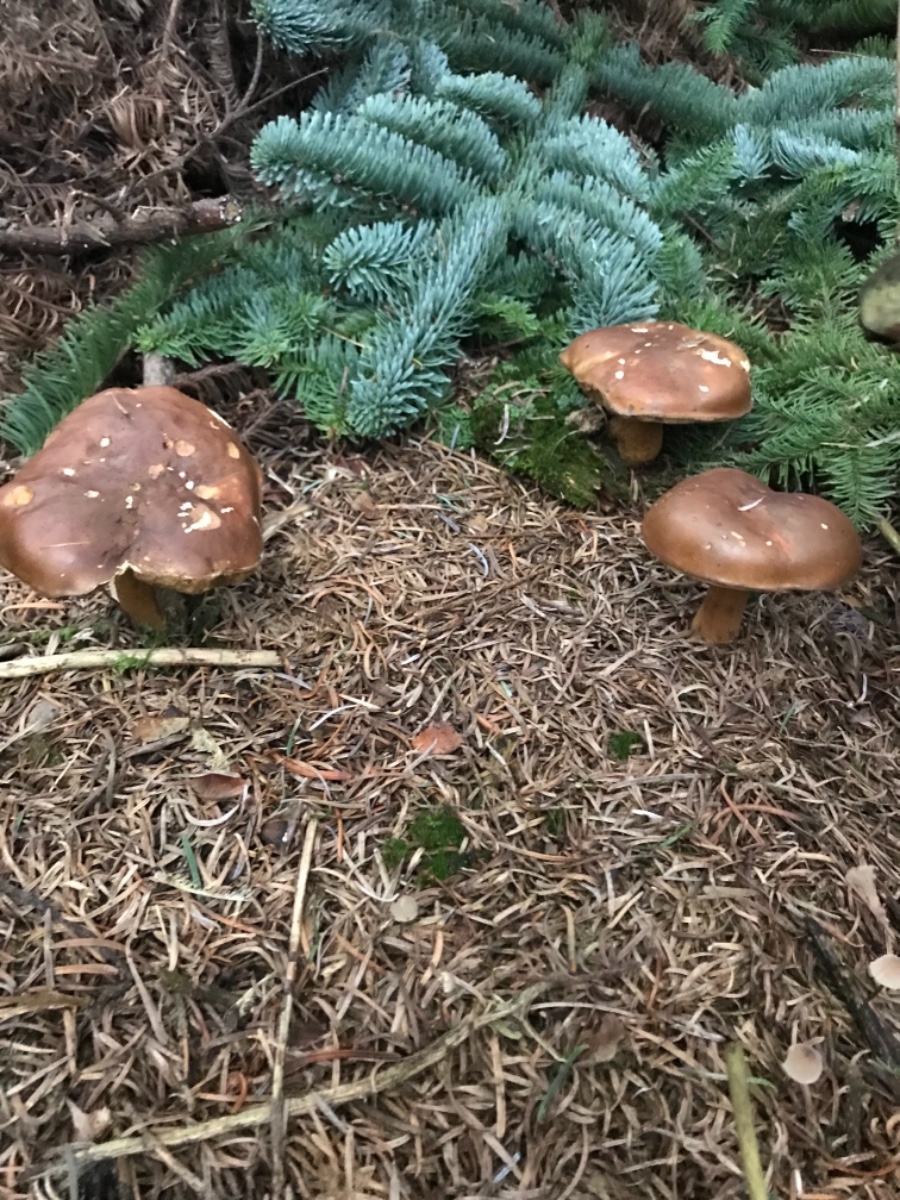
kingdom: Fungi
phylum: Basidiomycota
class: Agaricomycetes
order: Boletales
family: Boletaceae
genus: Imleria
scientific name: Imleria badia
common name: brunstokket rørhat
